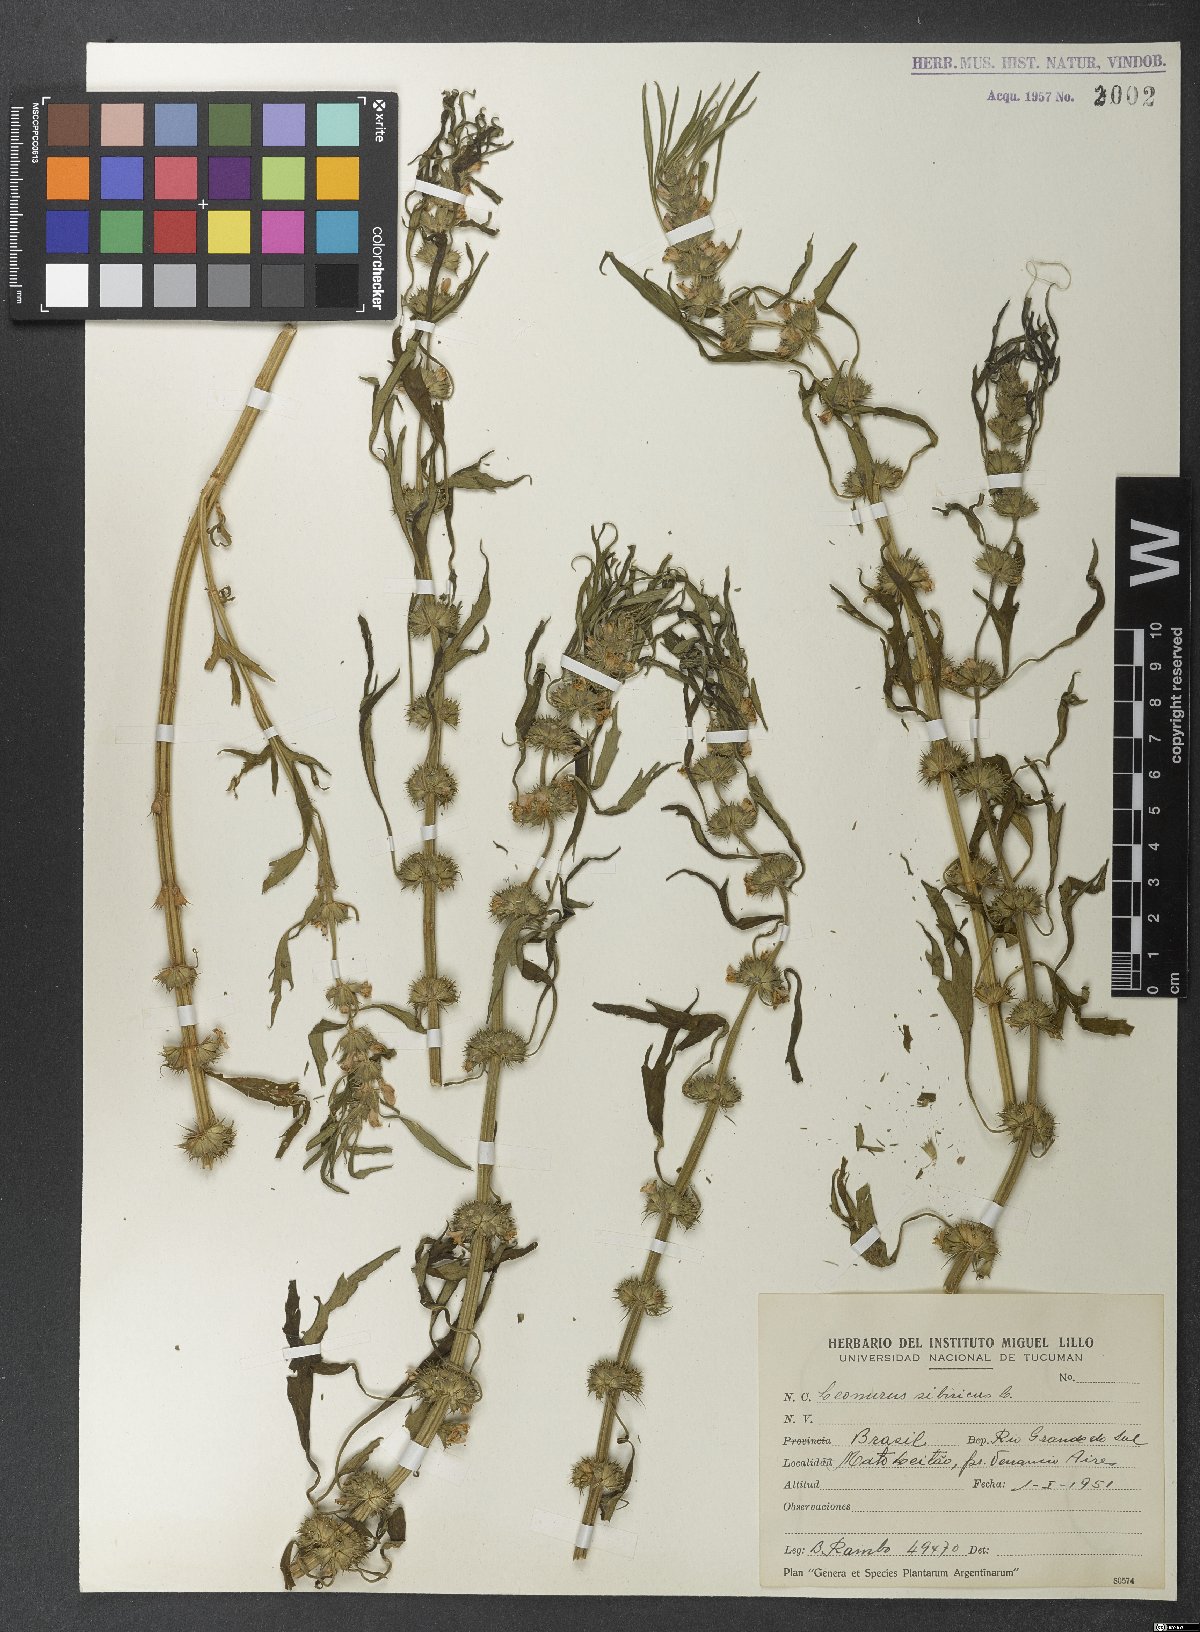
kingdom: Plantae
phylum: Tracheophyta
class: Magnoliopsida
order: Lamiales
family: Lamiaceae
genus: Leonurus
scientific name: Leonurus sibiricus
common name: Honeyweed
